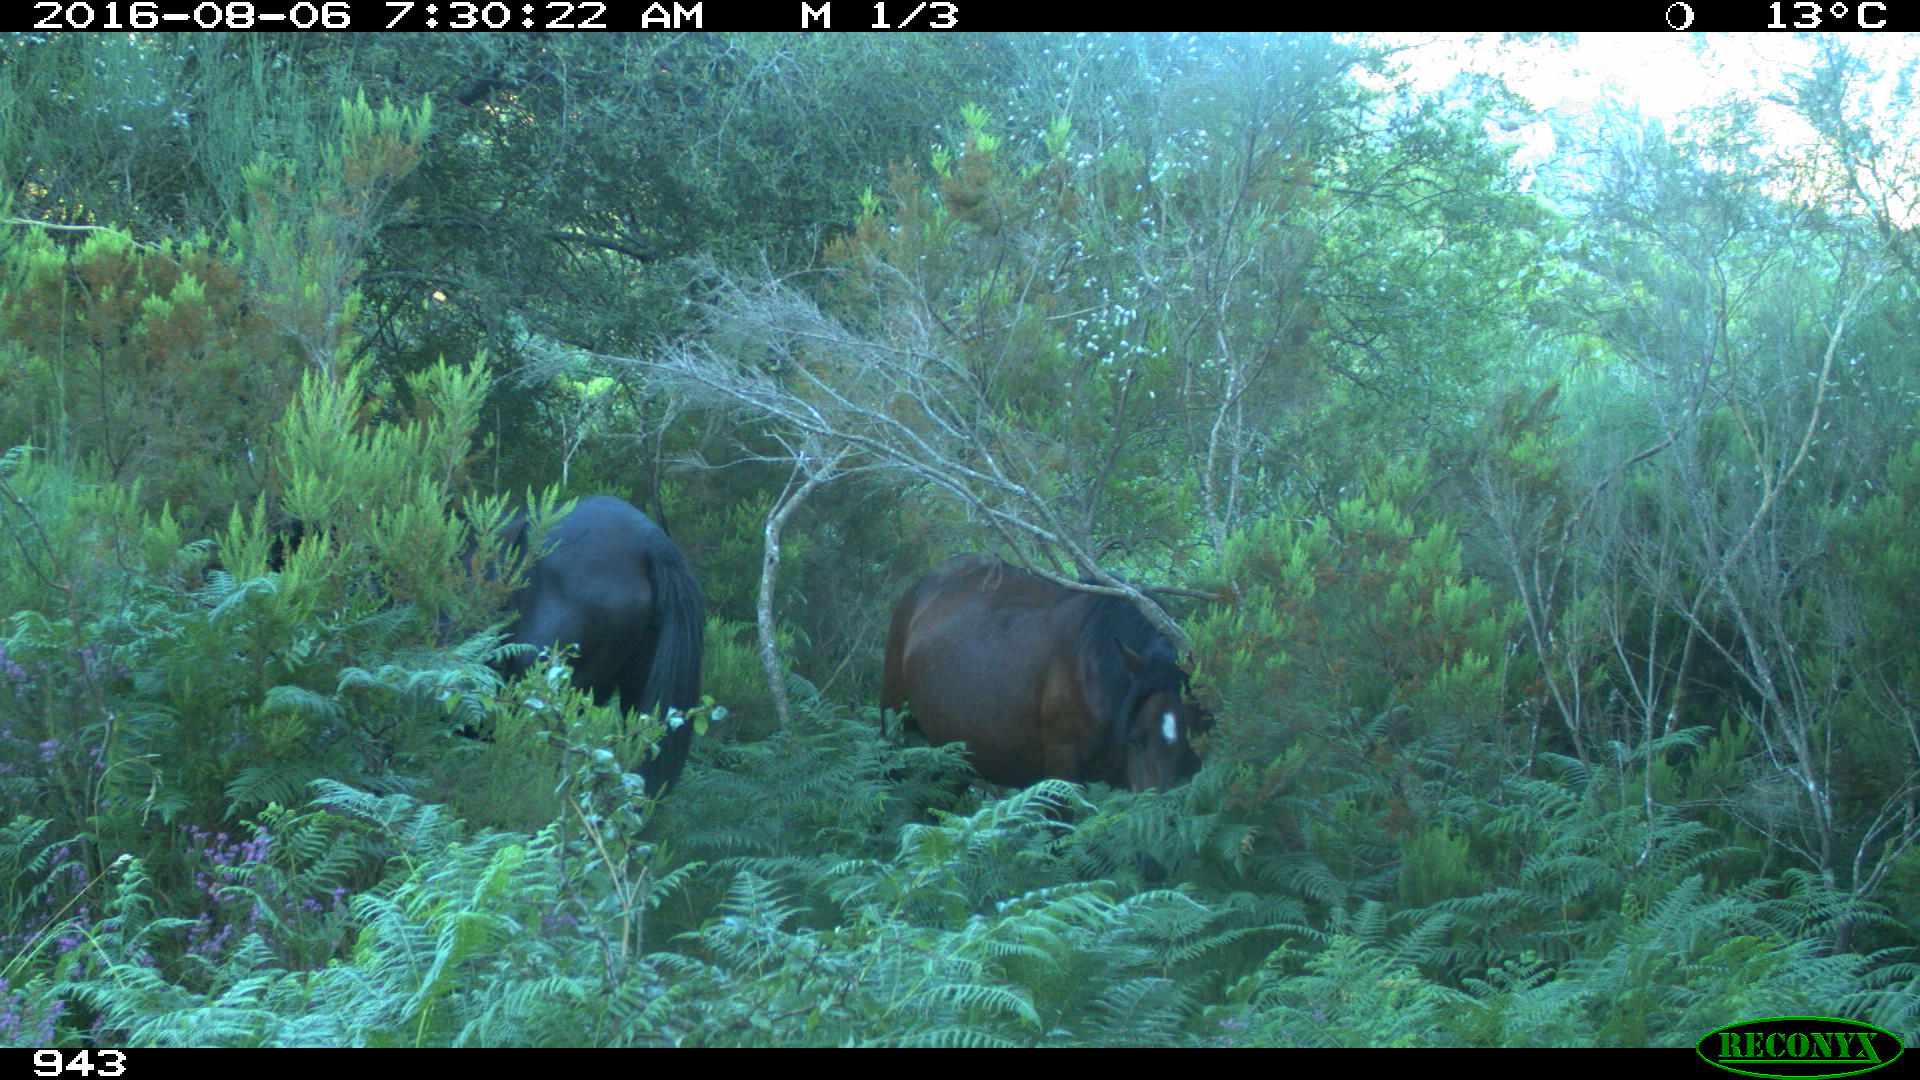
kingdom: Animalia
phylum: Chordata
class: Mammalia
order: Perissodactyla
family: Equidae
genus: Equus
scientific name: Equus caballus
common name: Horse
